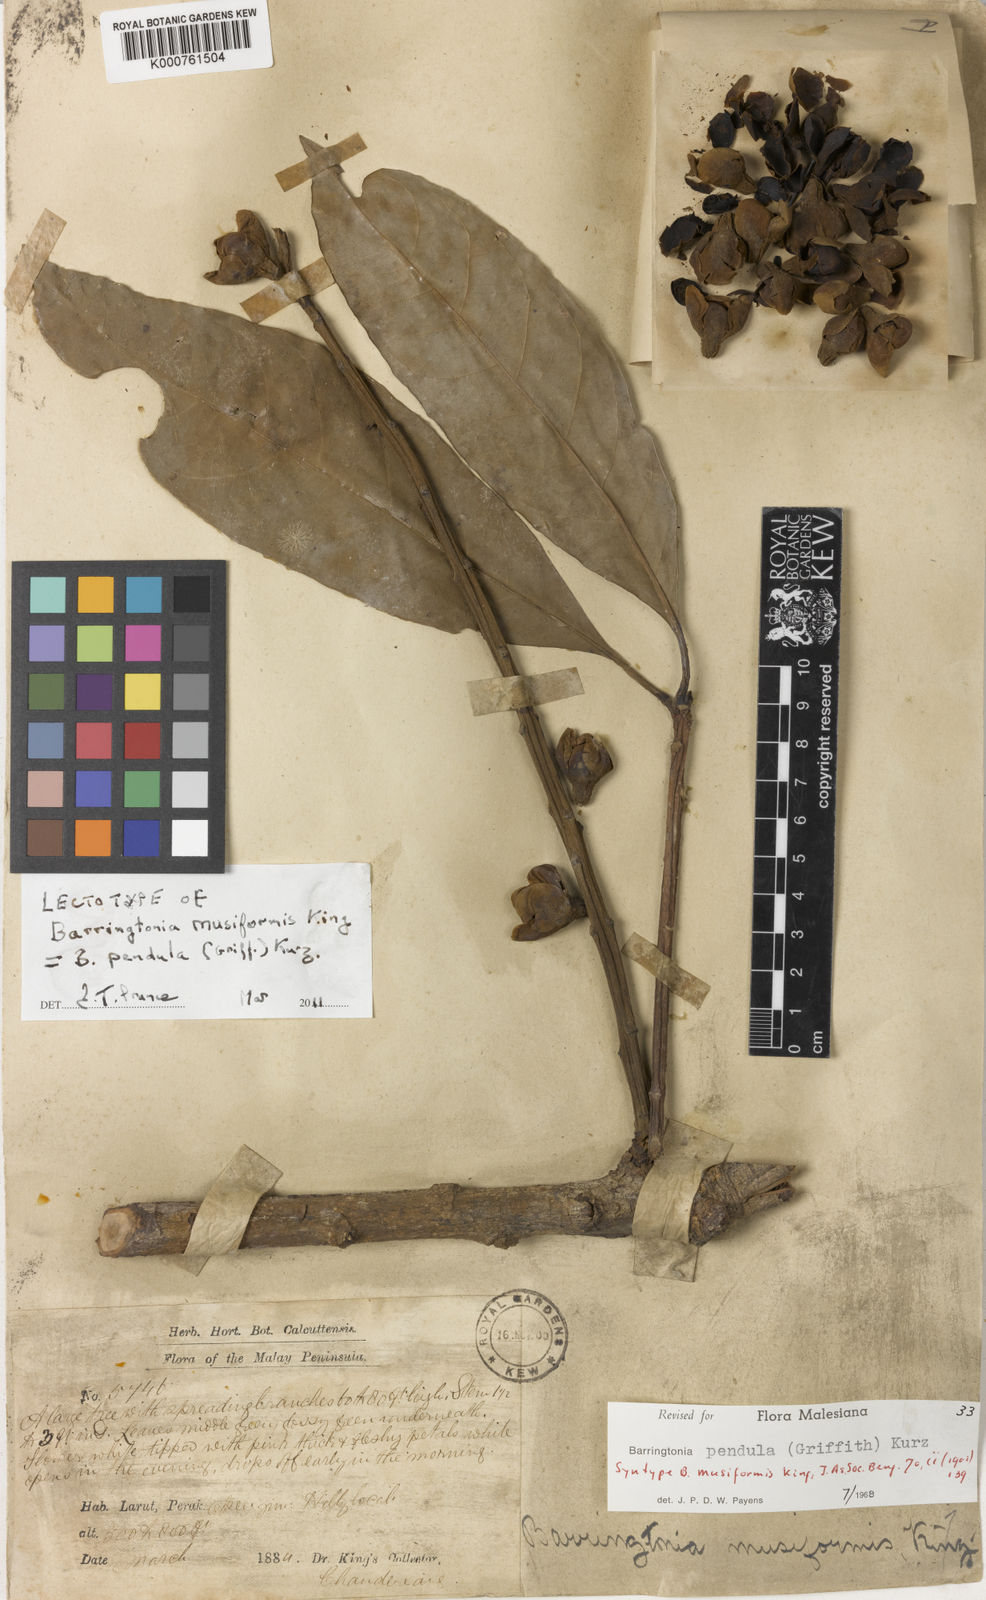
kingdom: Plantae
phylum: Tracheophyta
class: Magnoliopsida
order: Ericales
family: Lecythidaceae
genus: Barringtonia
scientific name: Barringtonia pendula
